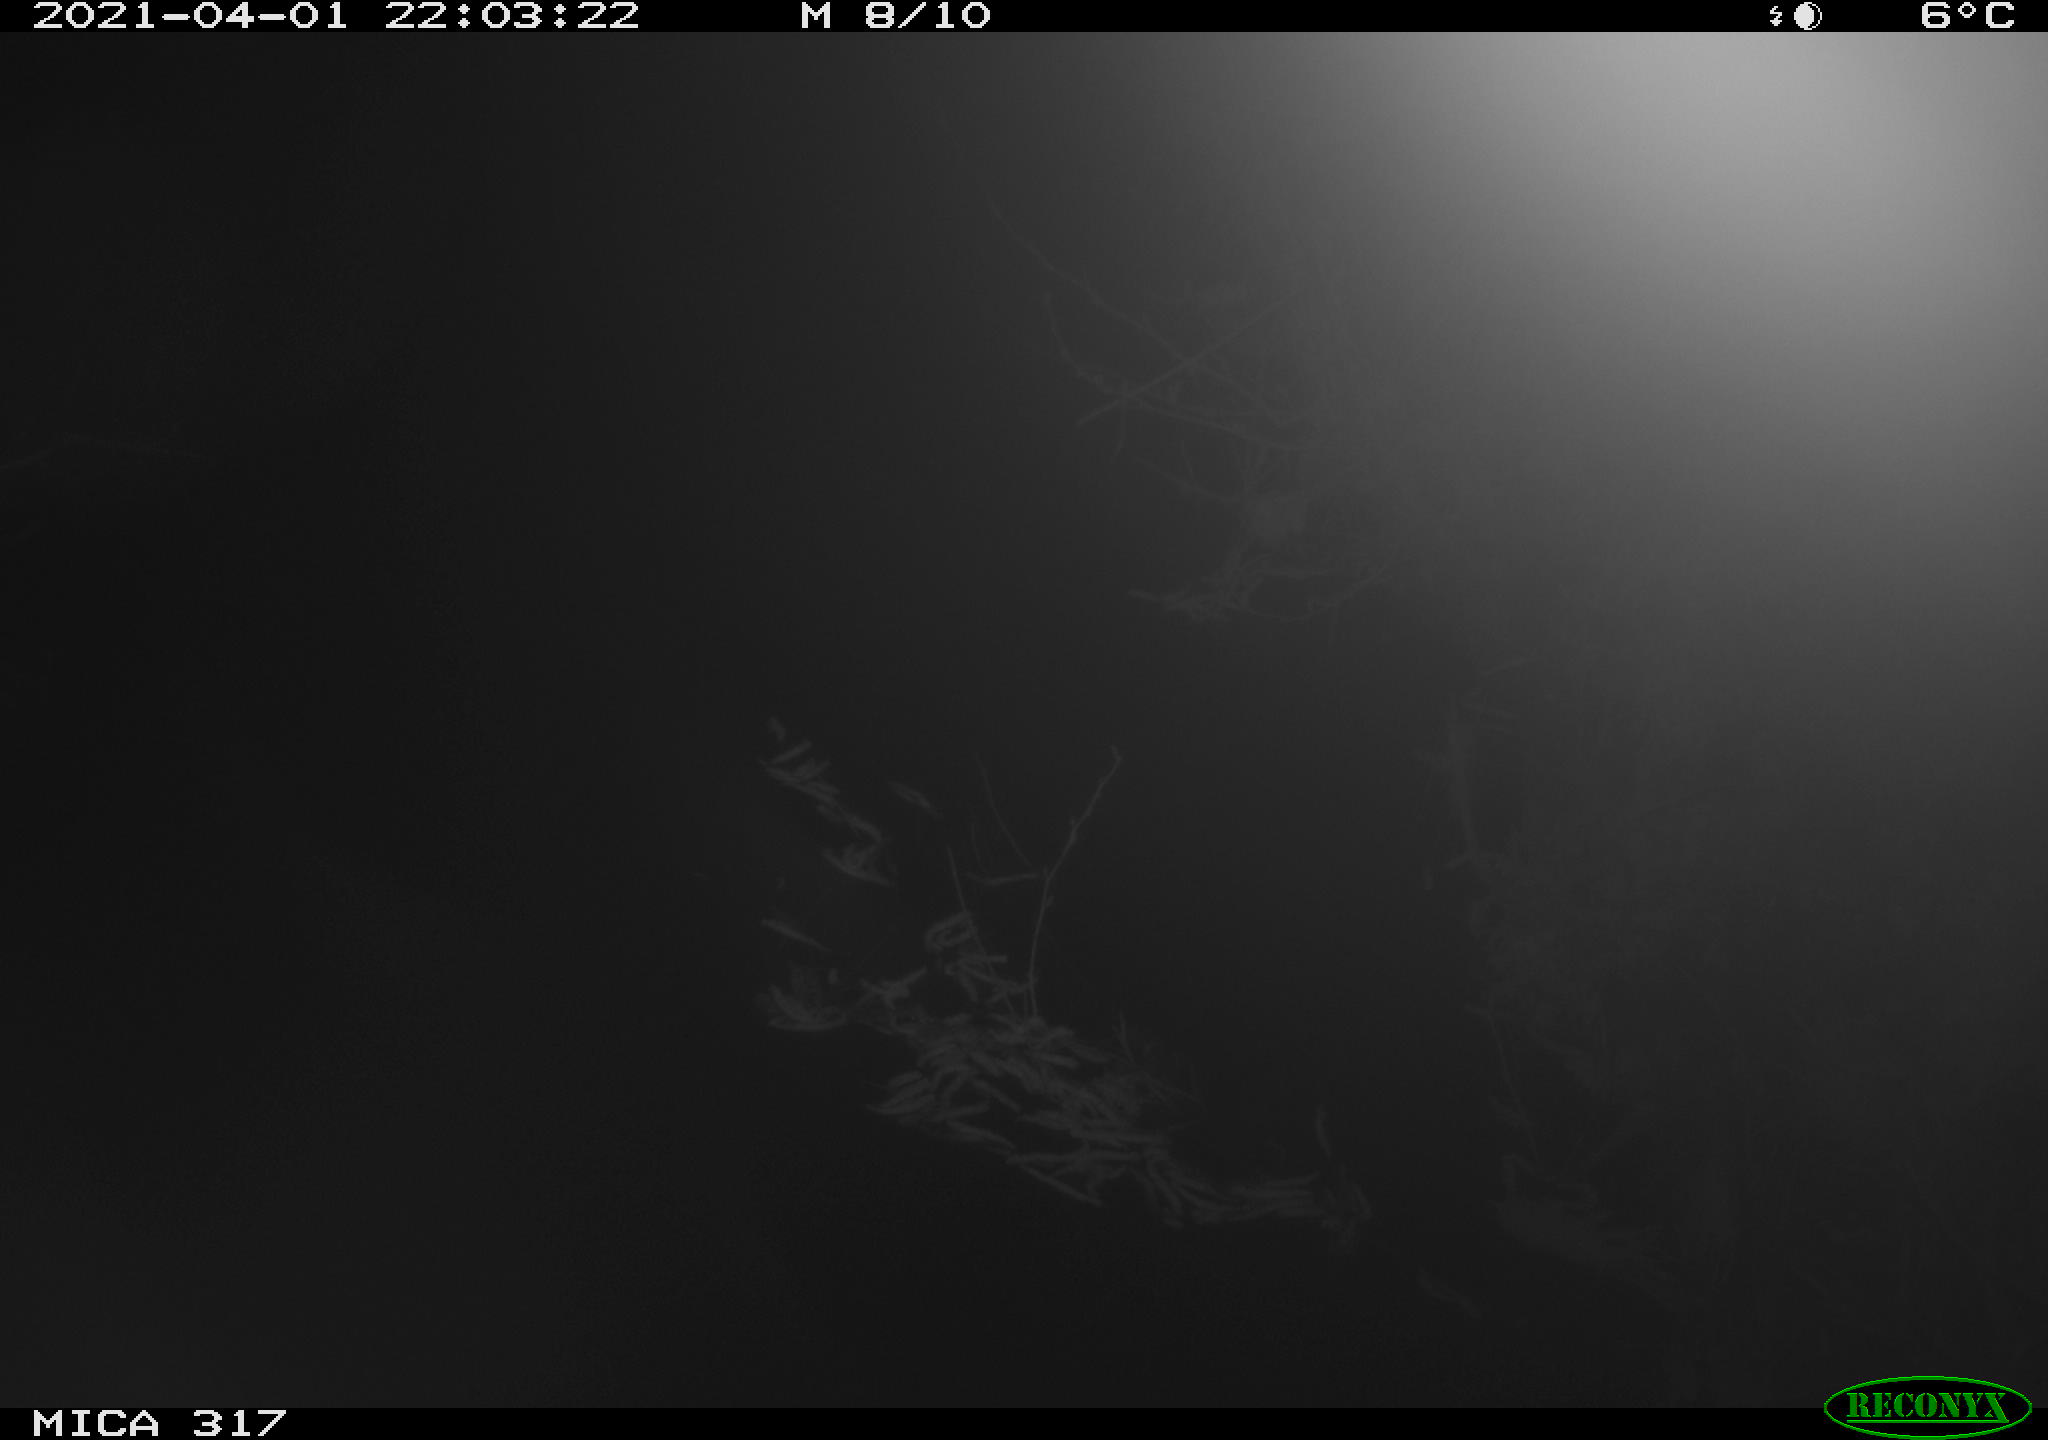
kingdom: Animalia
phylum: Chordata
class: Aves
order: Anseriformes
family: Anatidae
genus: Anas
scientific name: Anas platyrhynchos
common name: Mallard
